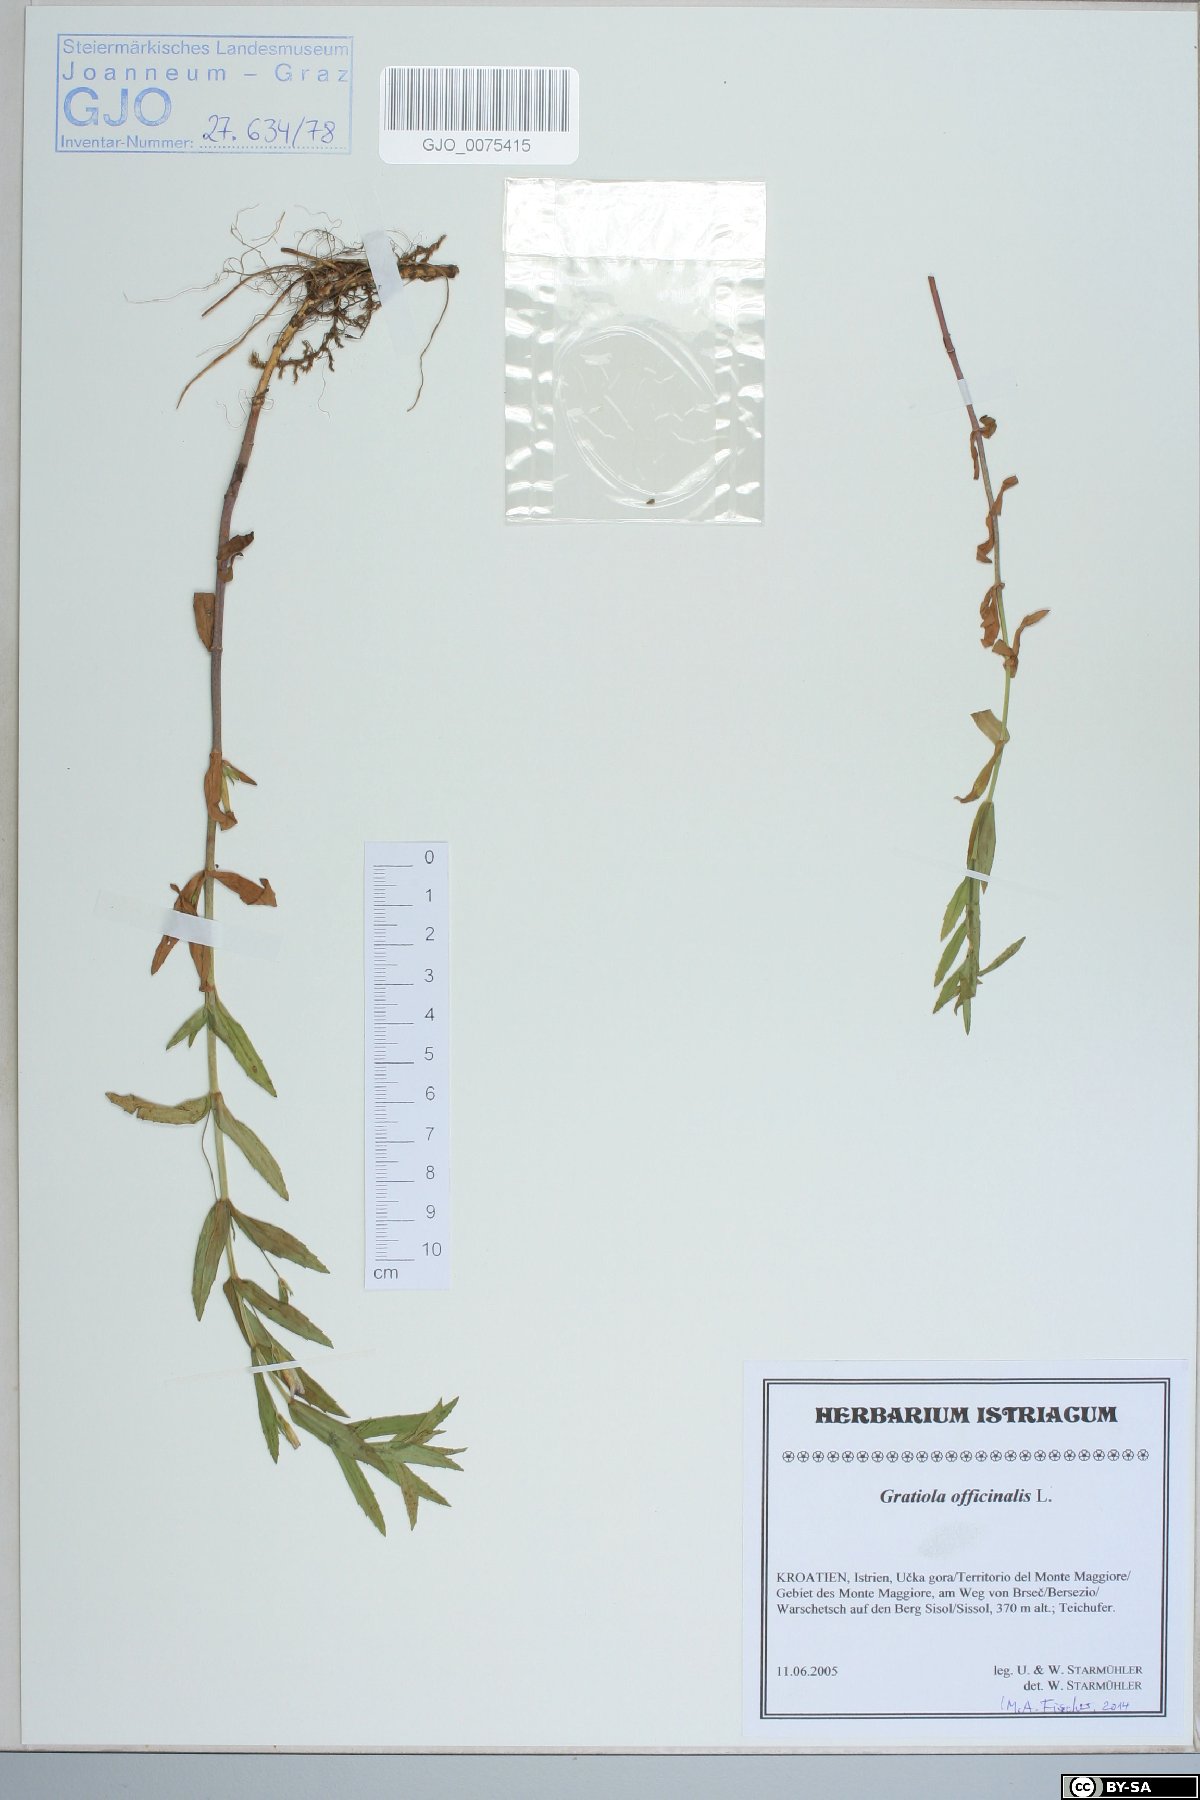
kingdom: Plantae
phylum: Tracheophyta
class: Magnoliopsida
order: Lamiales
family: Plantaginaceae
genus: Gratiola
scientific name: Gratiola officinalis
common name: Gratiola
